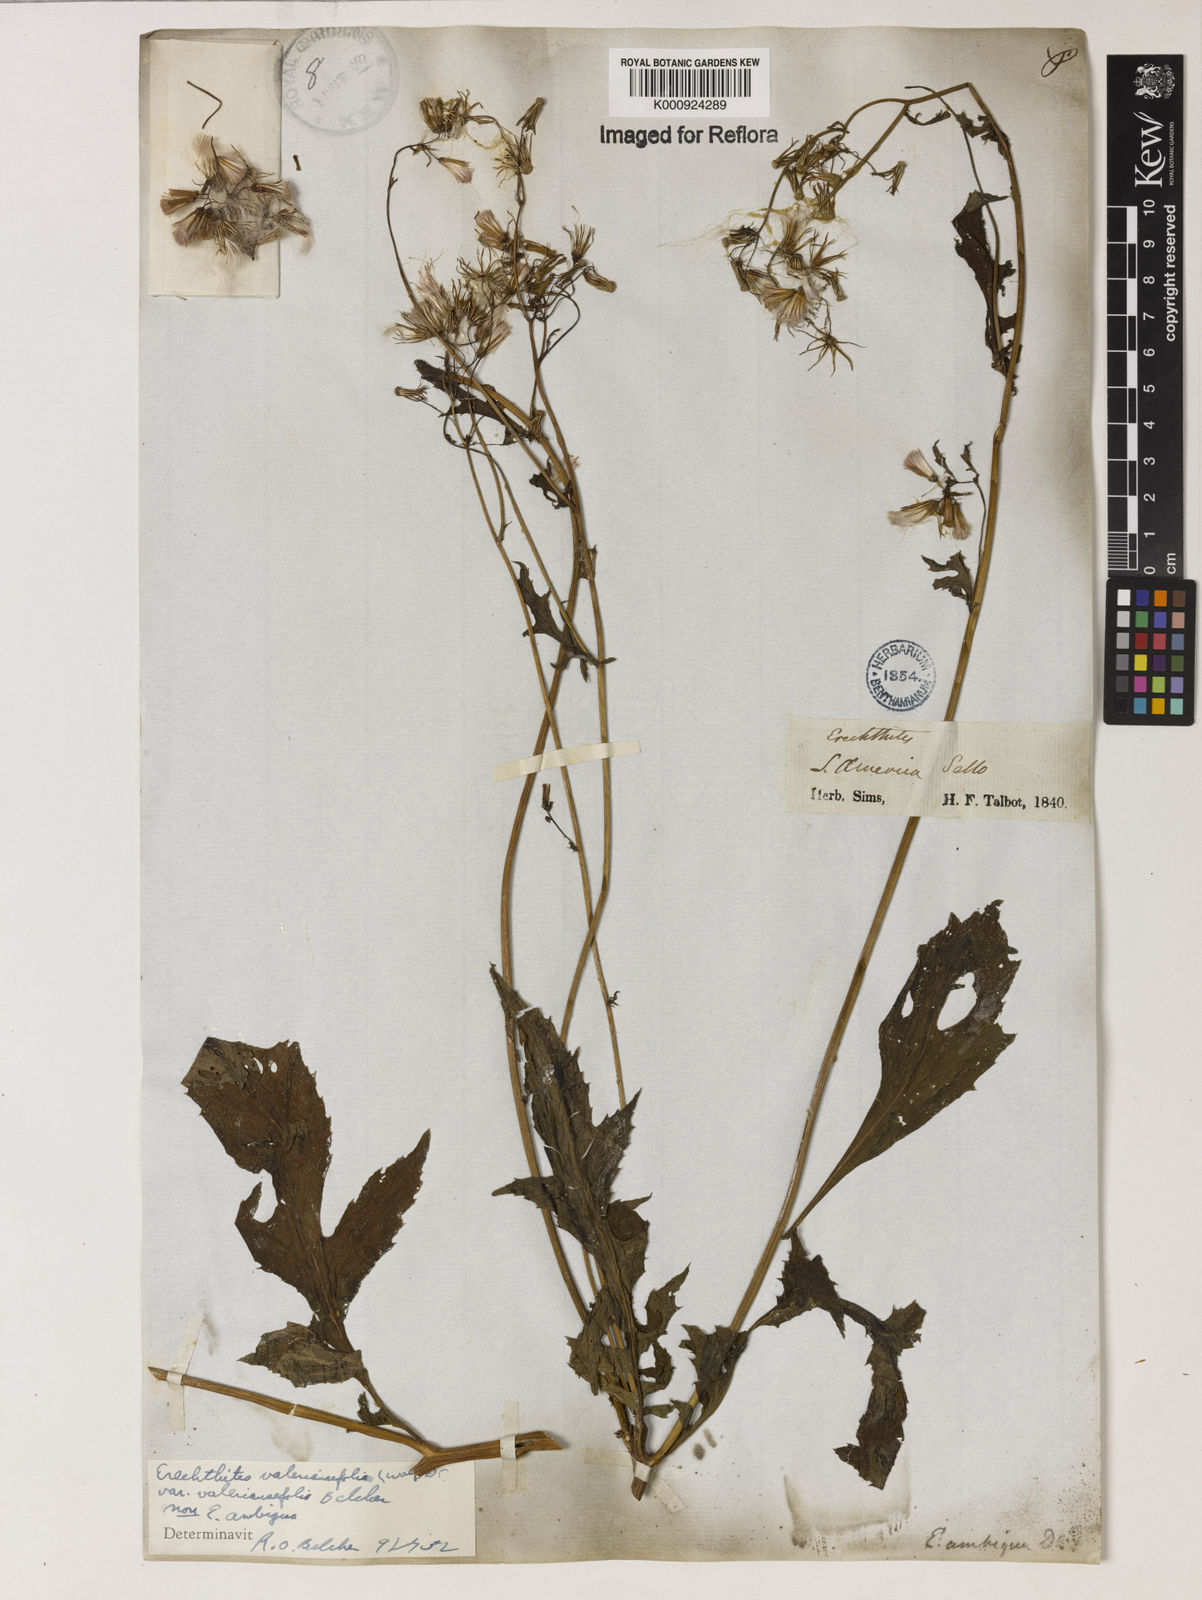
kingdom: Plantae
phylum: Tracheophyta
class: Magnoliopsida
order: Asterales
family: Asteraceae
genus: Erechtites
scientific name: Erechtites valerianifolius
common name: Tropical burnweed
